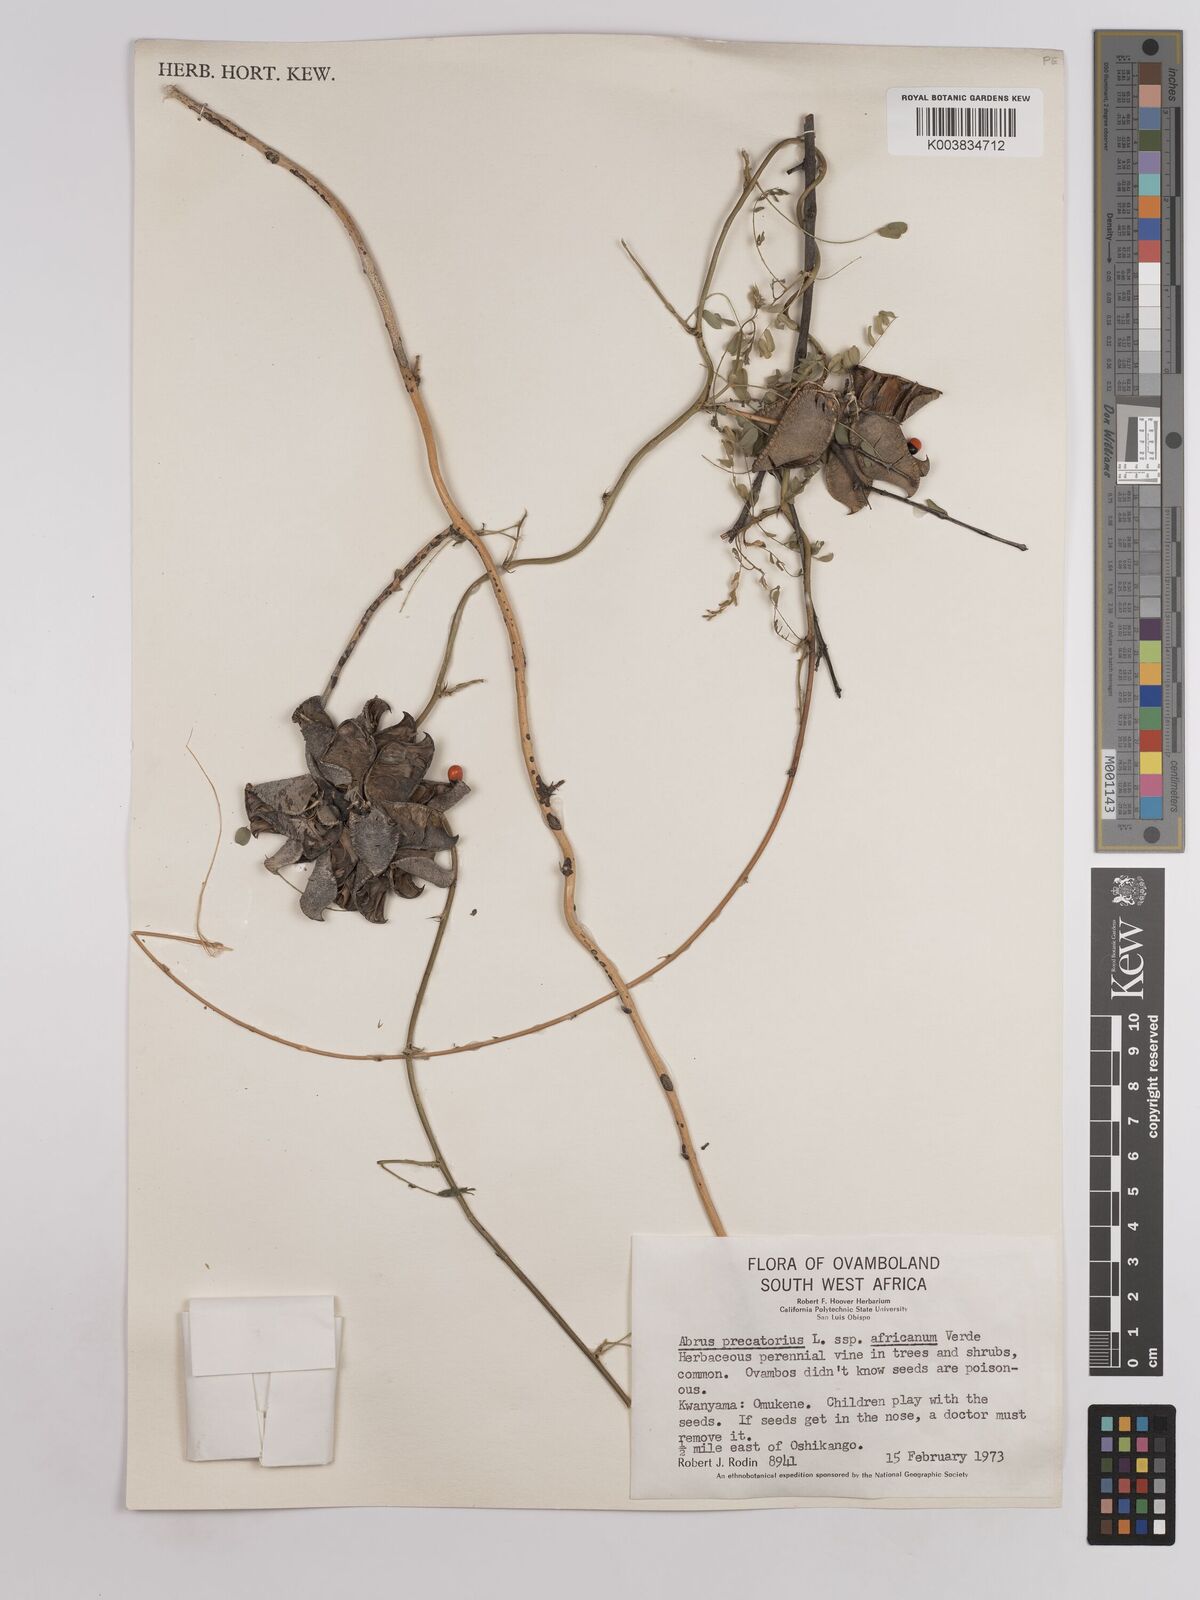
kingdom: Plantae
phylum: Tracheophyta
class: Magnoliopsida
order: Fabales
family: Fabaceae
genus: Abrus
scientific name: Abrus precatorius
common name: Rosarypea
